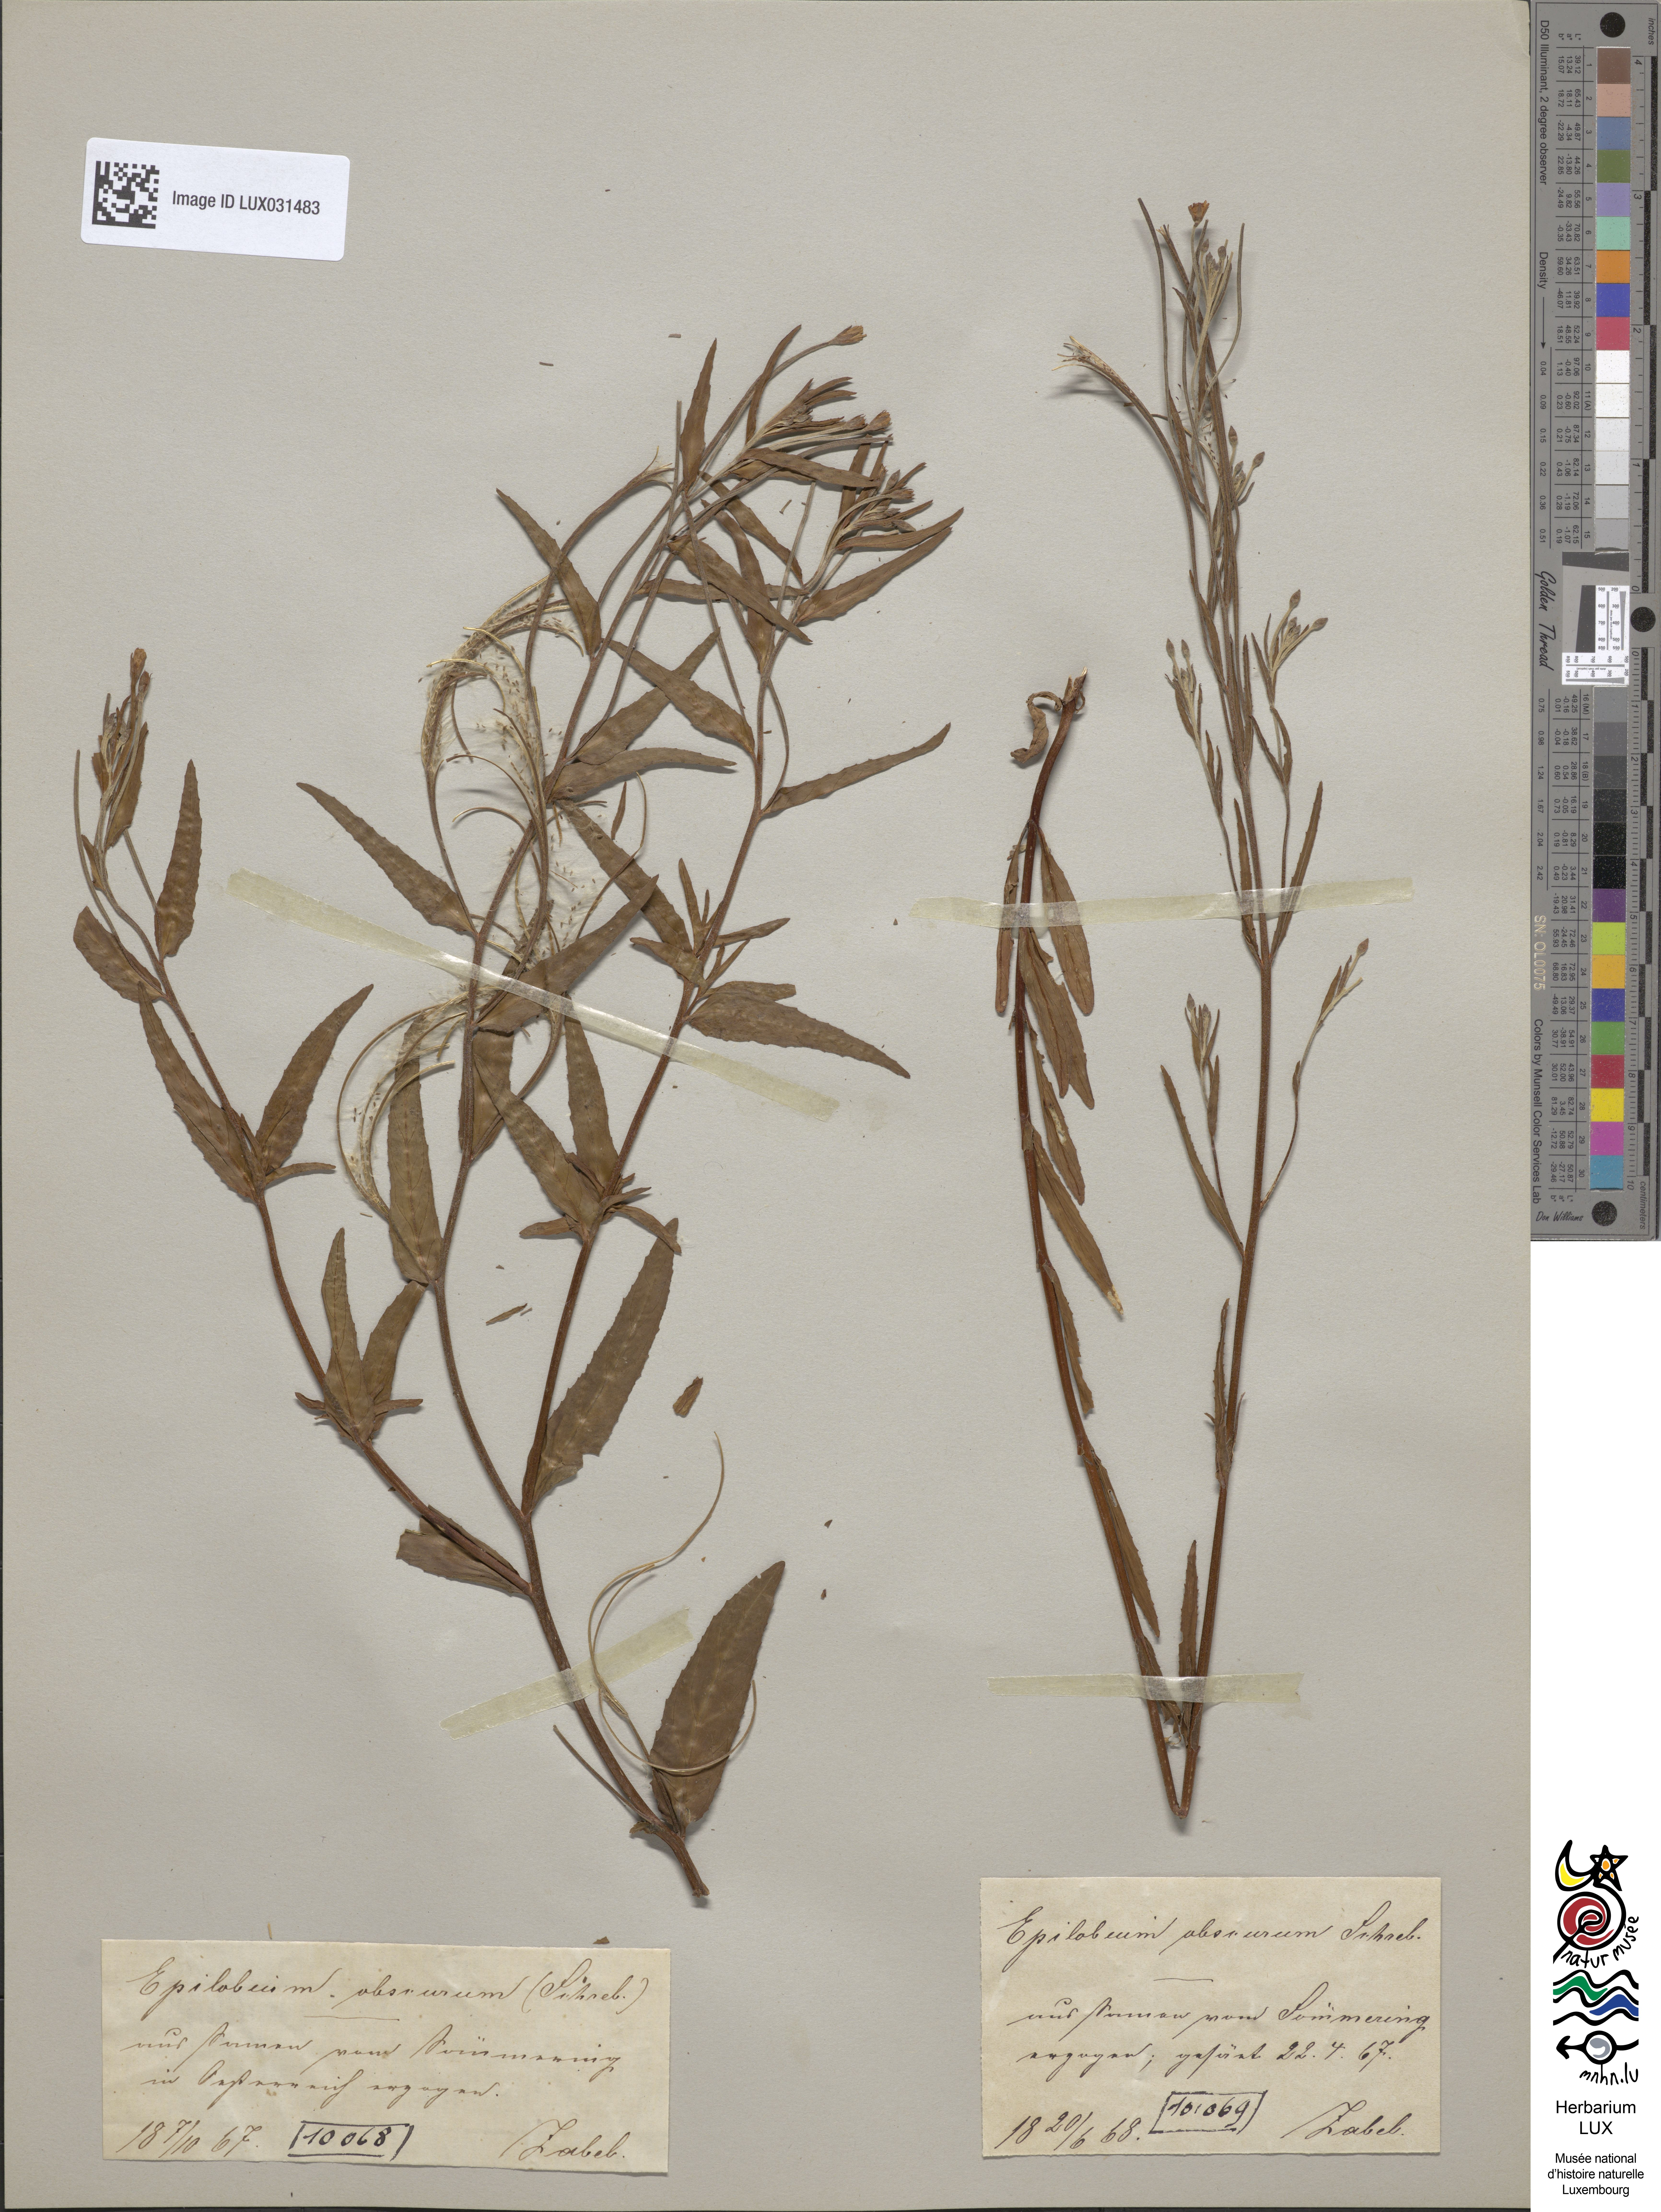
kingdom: Plantae
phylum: Tracheophyta
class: Magnoliopsida
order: Myrtales
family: Onagraceae
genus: Epilobium
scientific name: Epilobium obscurum
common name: Short-fruited willowherb
